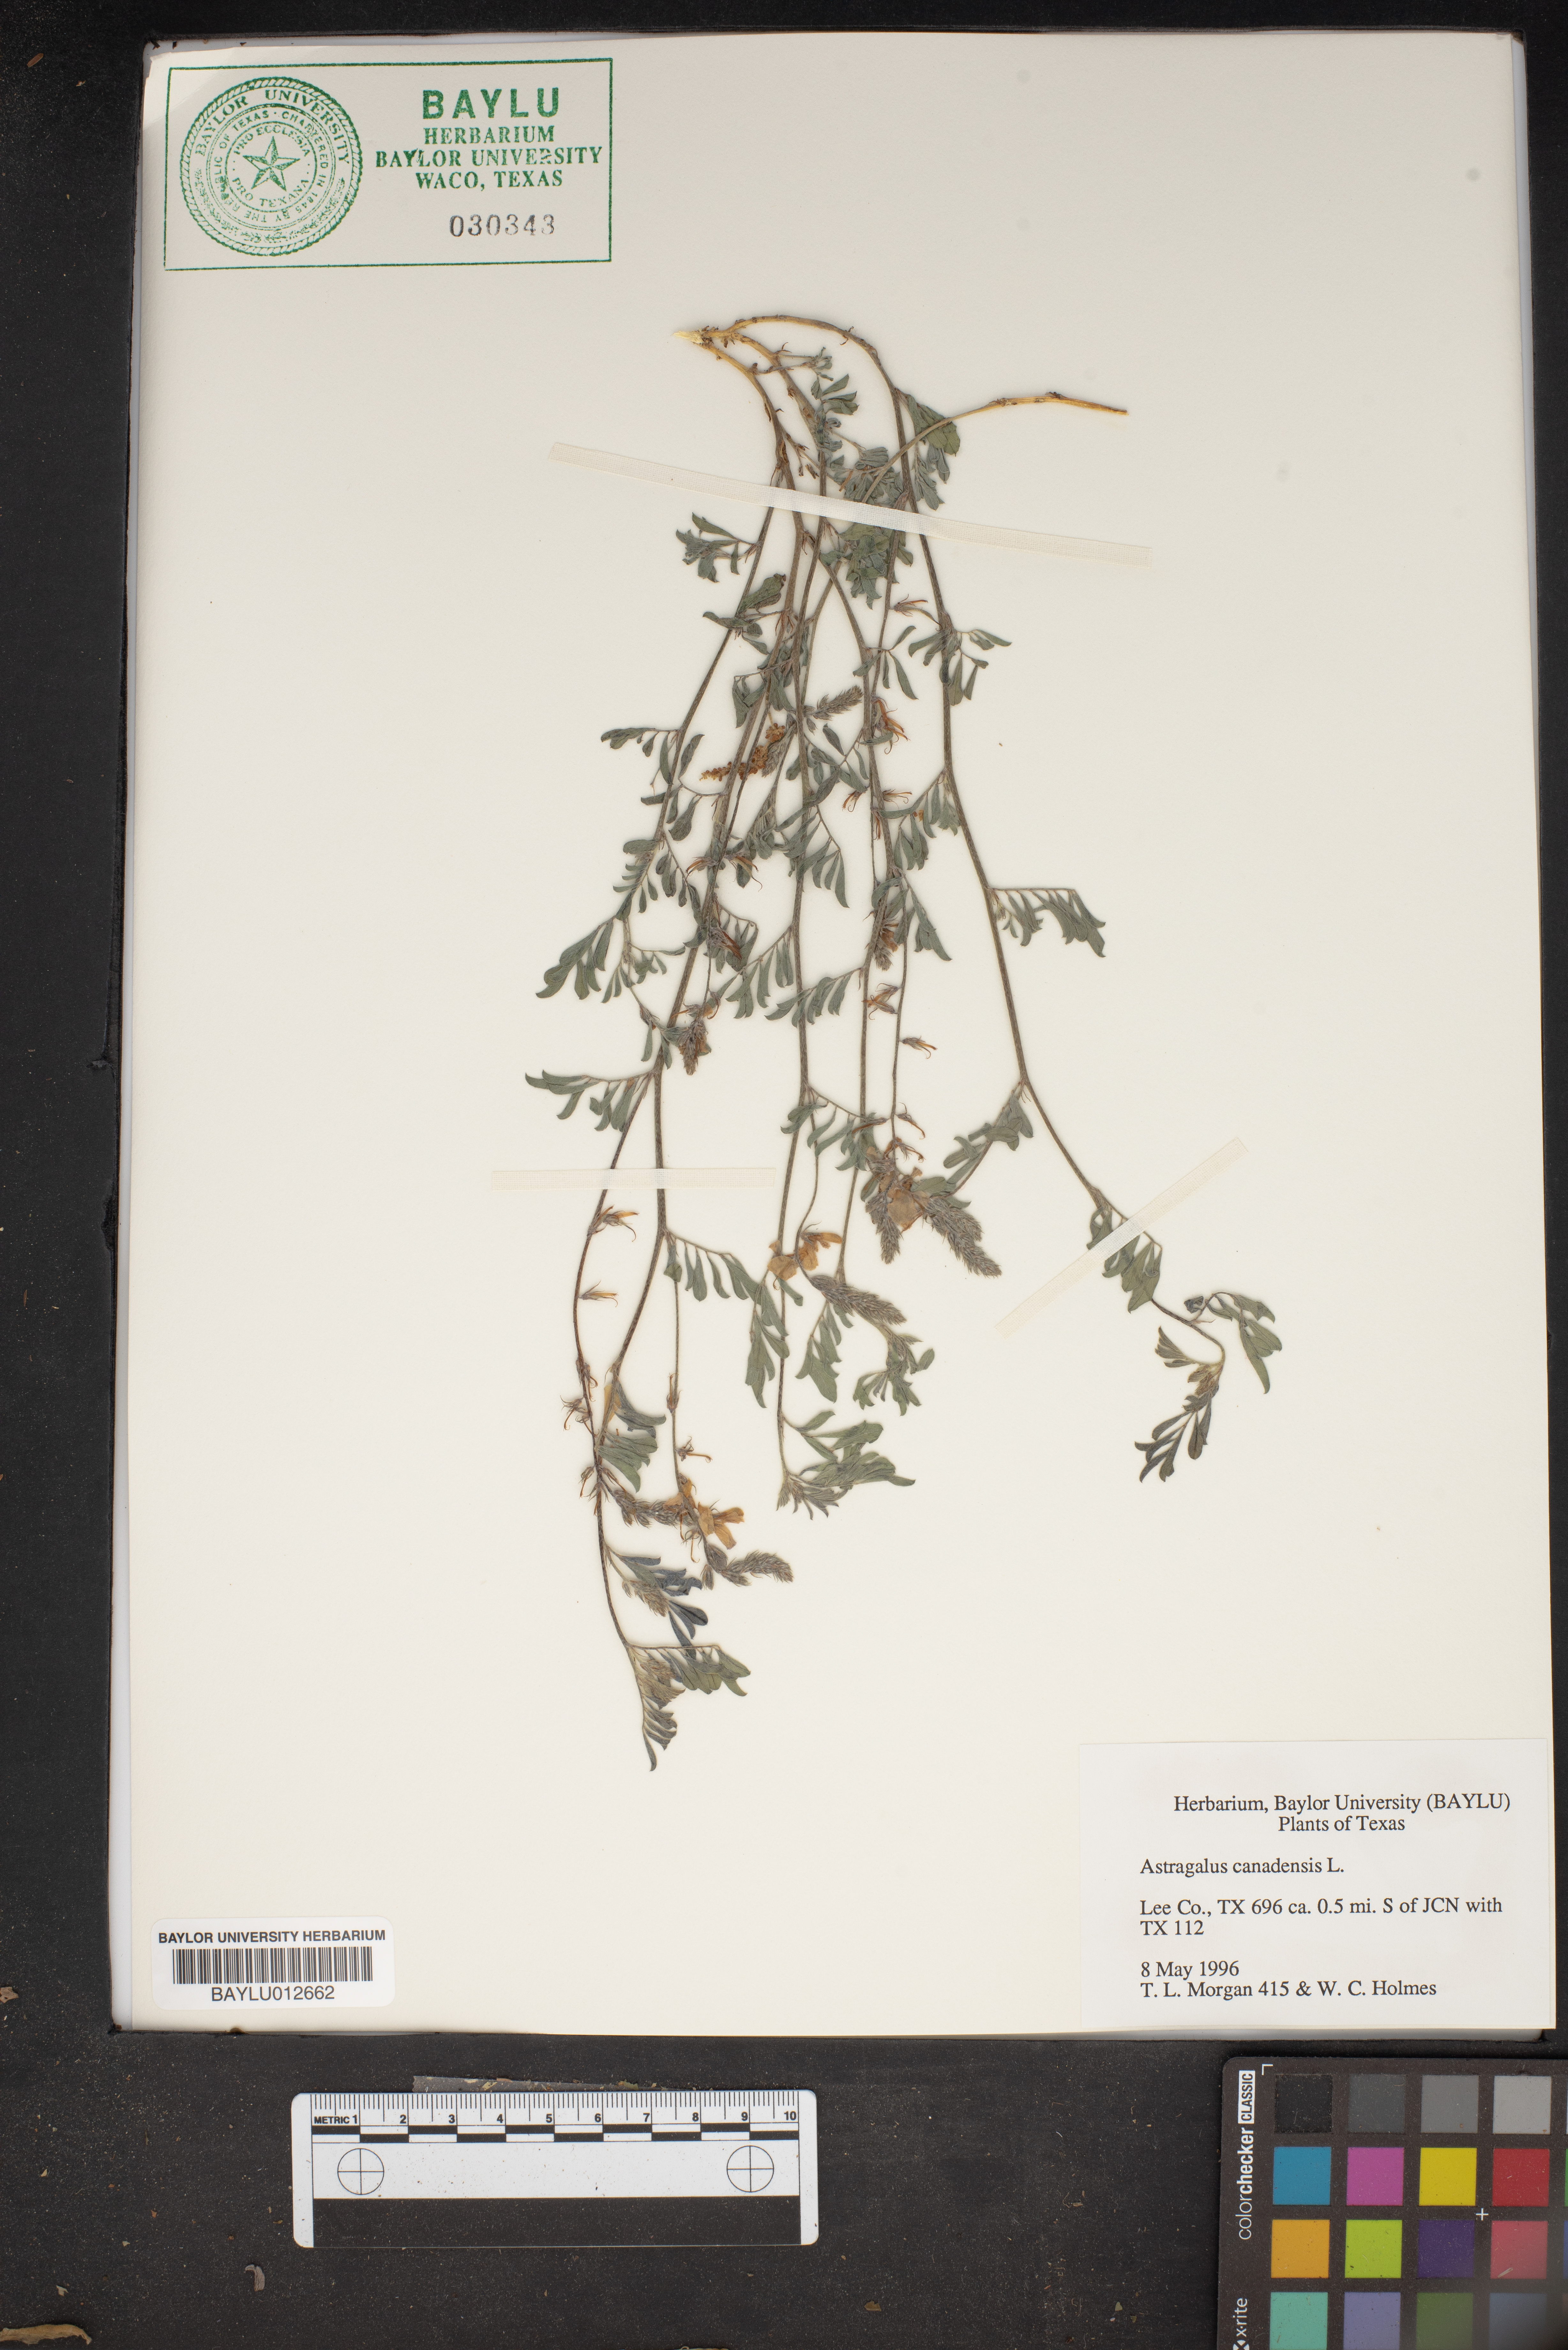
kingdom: Plantae
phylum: Tracheophyta
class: Magnoliopsida
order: Fabales
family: Fabaceae
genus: Astragalus
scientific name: Astragalus canadensis
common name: Canada milk-vetch
